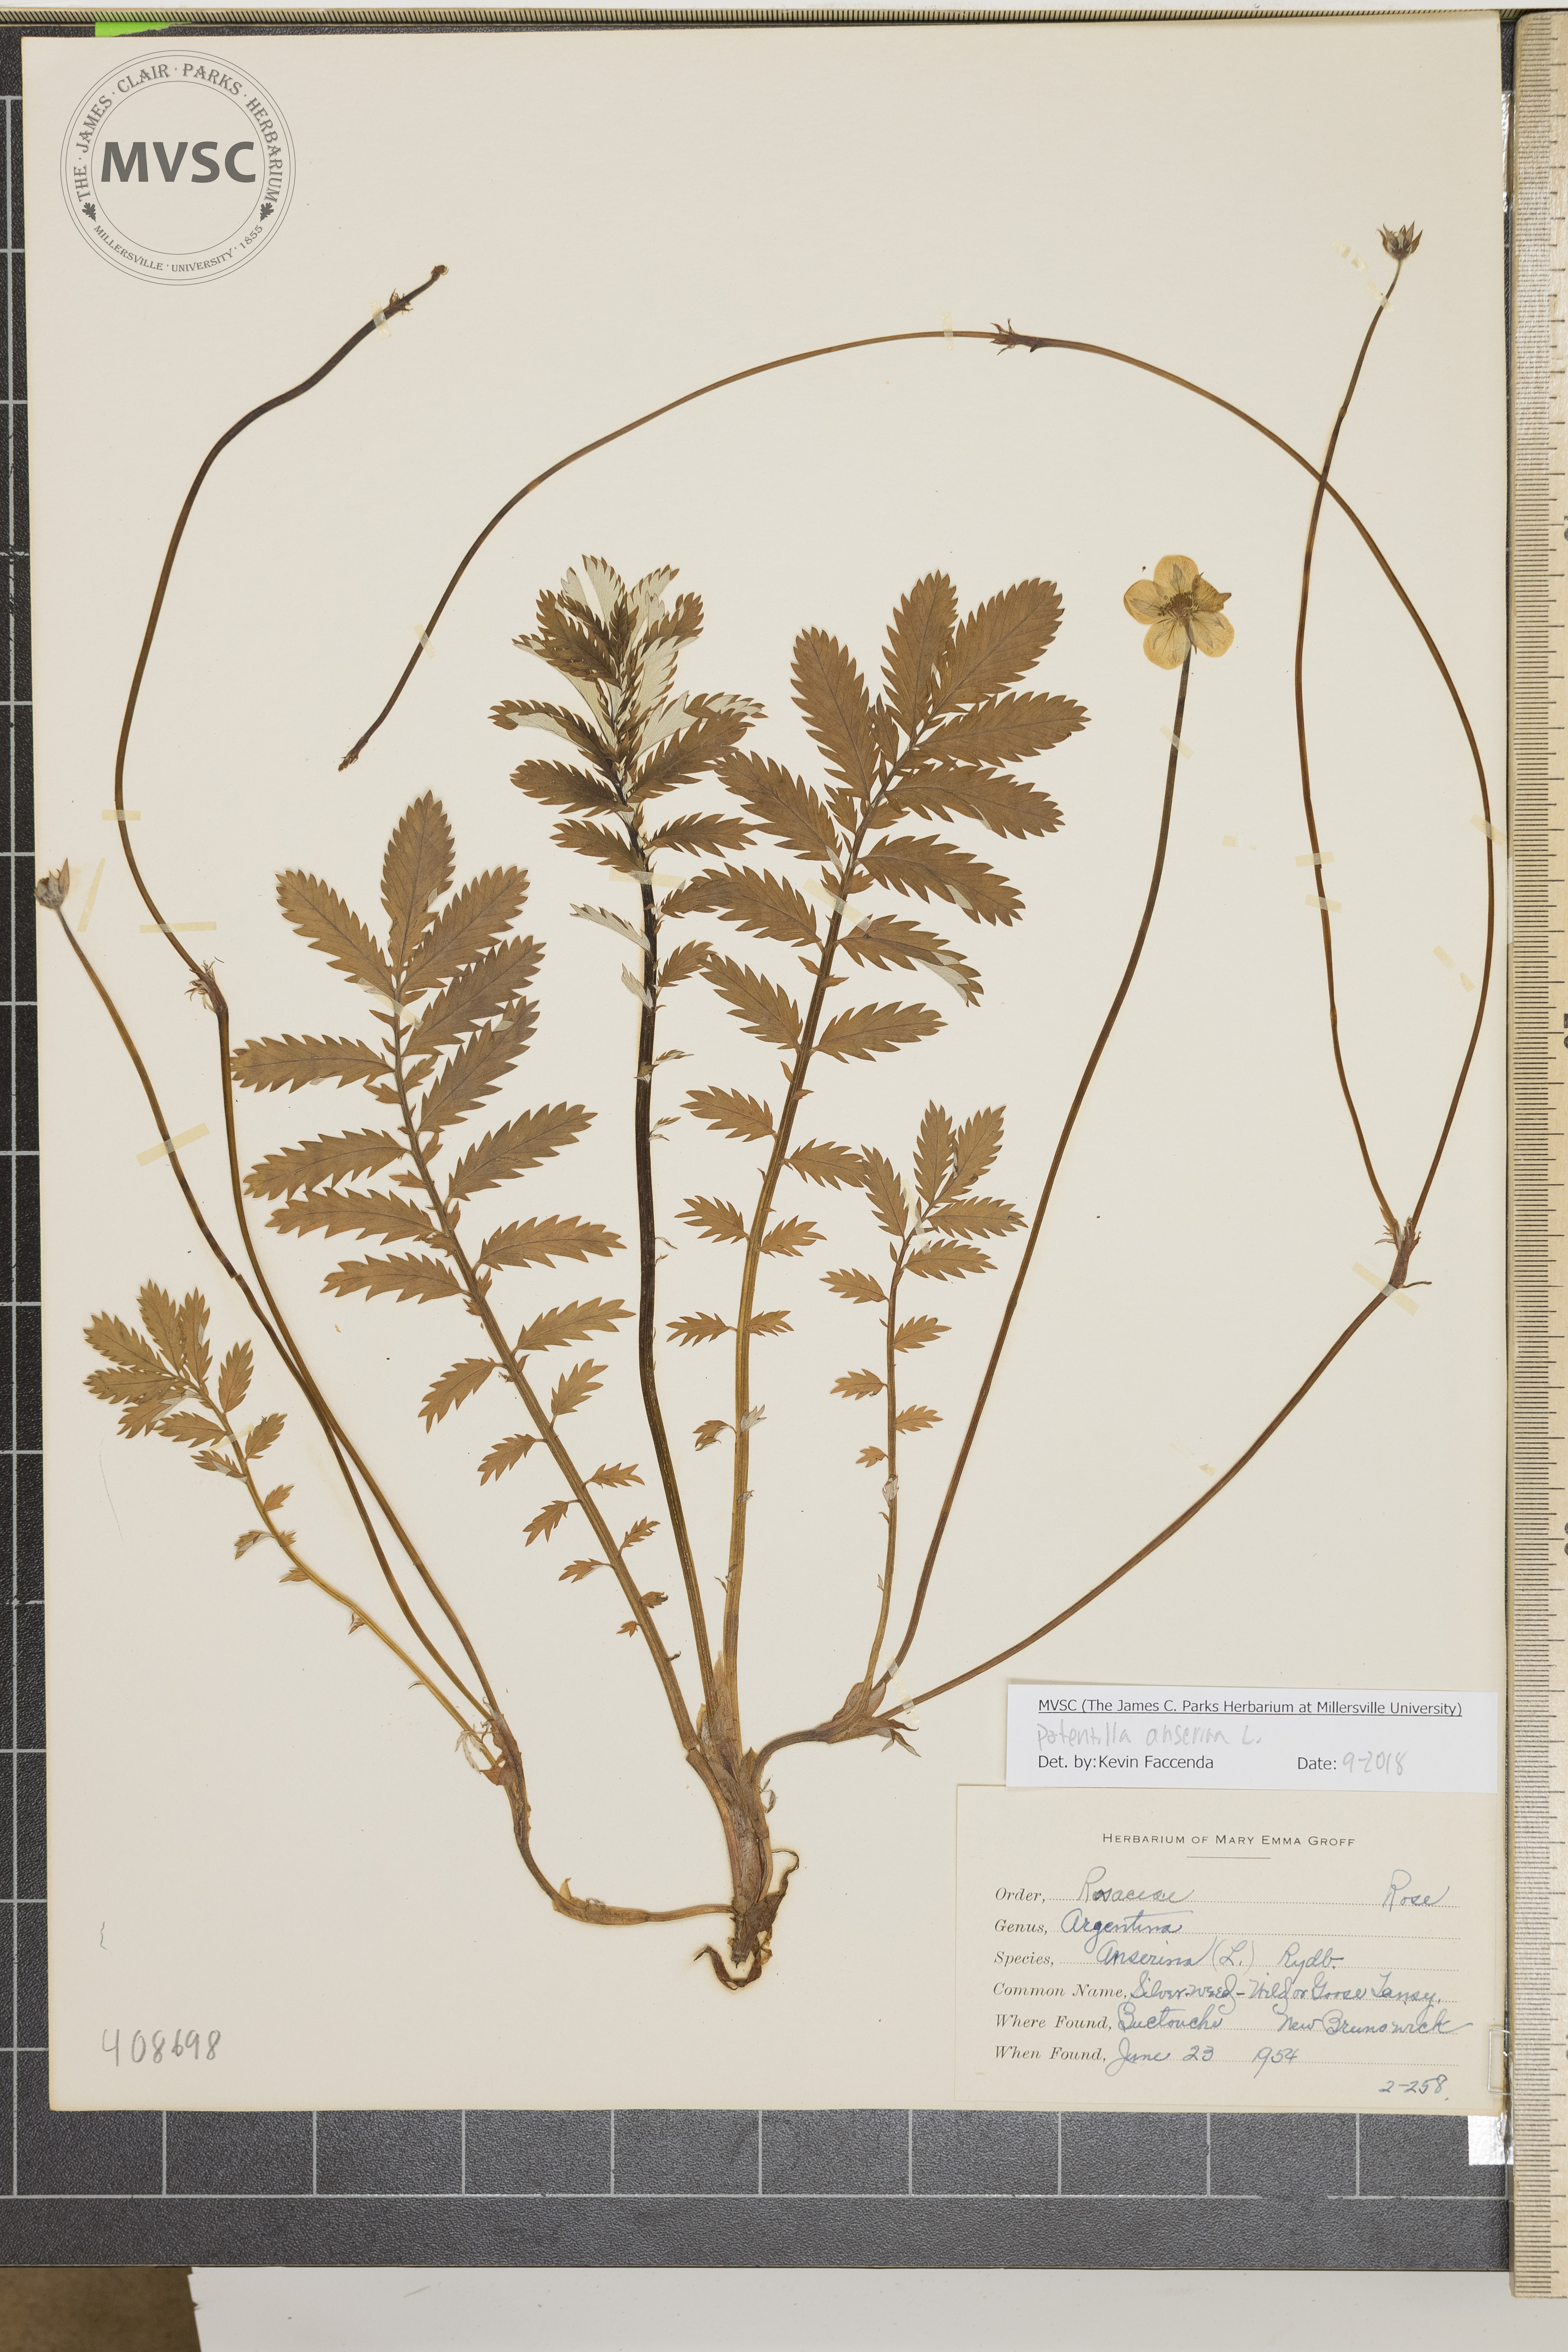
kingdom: Plantae
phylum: Tracheophyta
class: Magnoliopsida
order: Rosales
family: Rosaceae
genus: Argentina
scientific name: Argentina anserina
